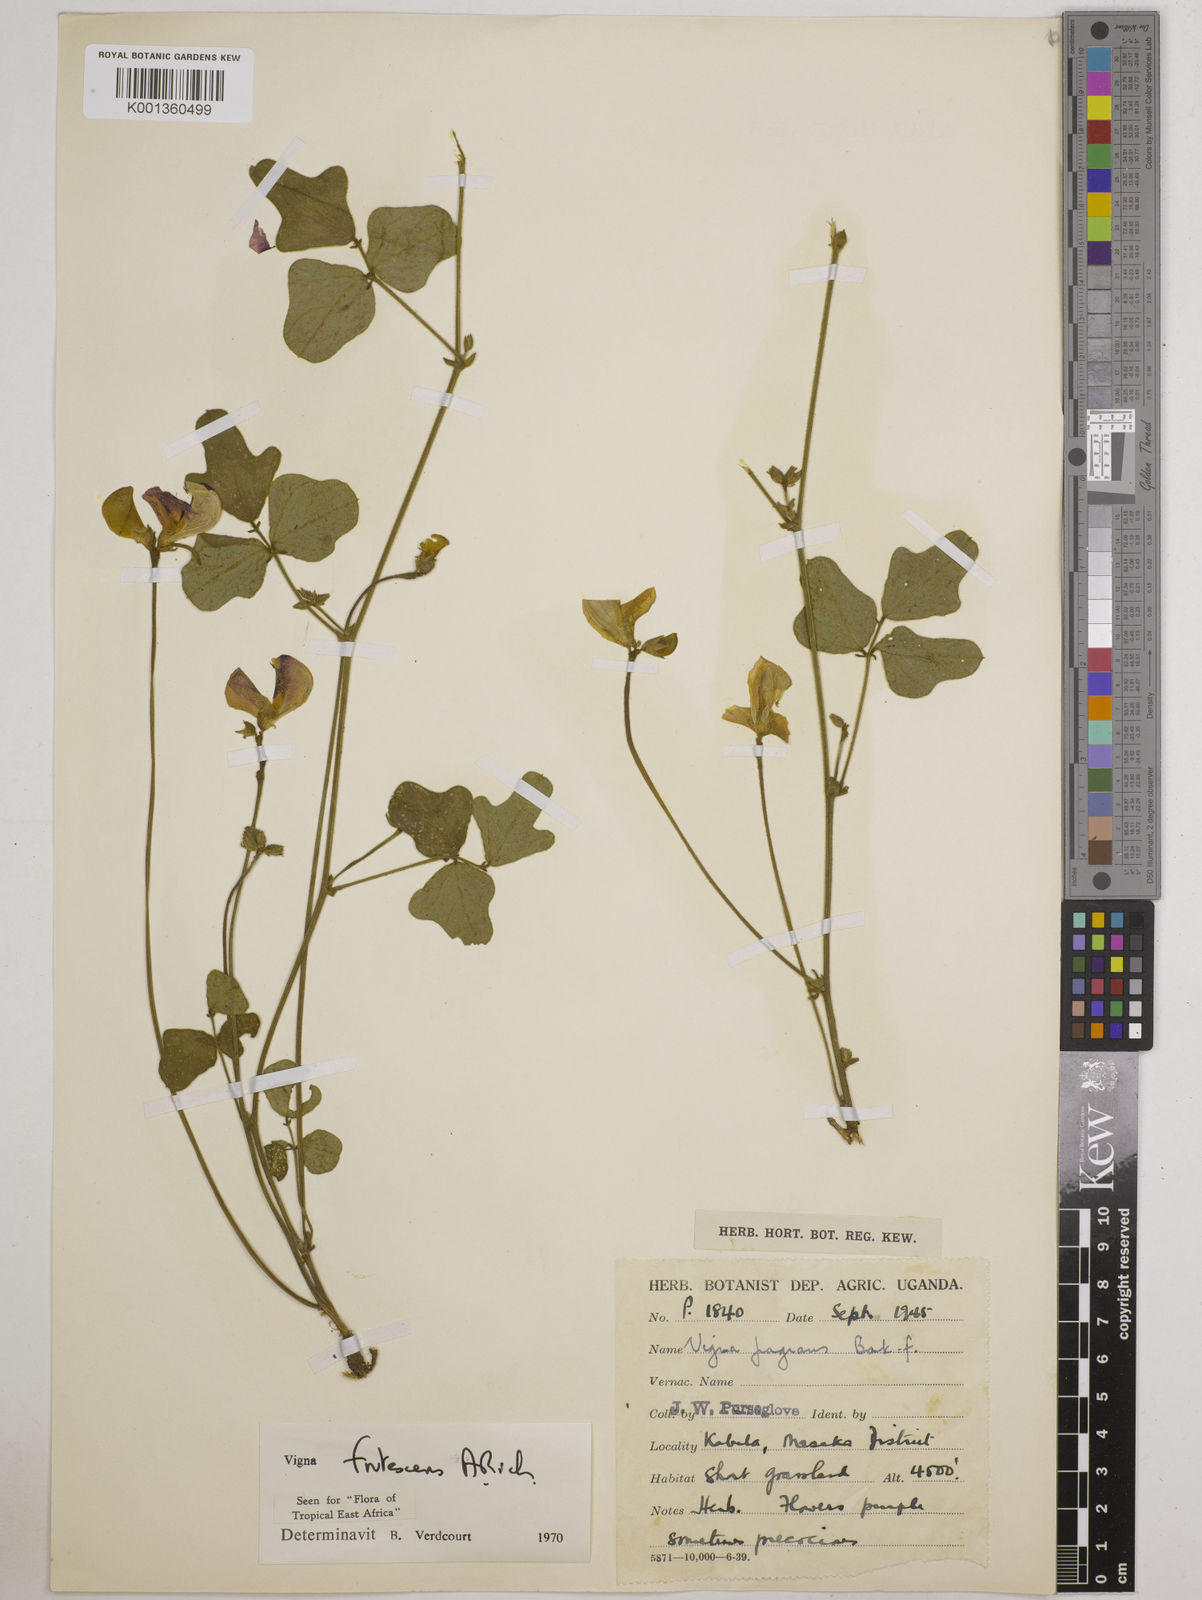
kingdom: Plantae
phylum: Tracheophyta
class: Magnoliopsida
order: Fabales
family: Fabaceae
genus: Vigna
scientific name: Vigna frutescens
